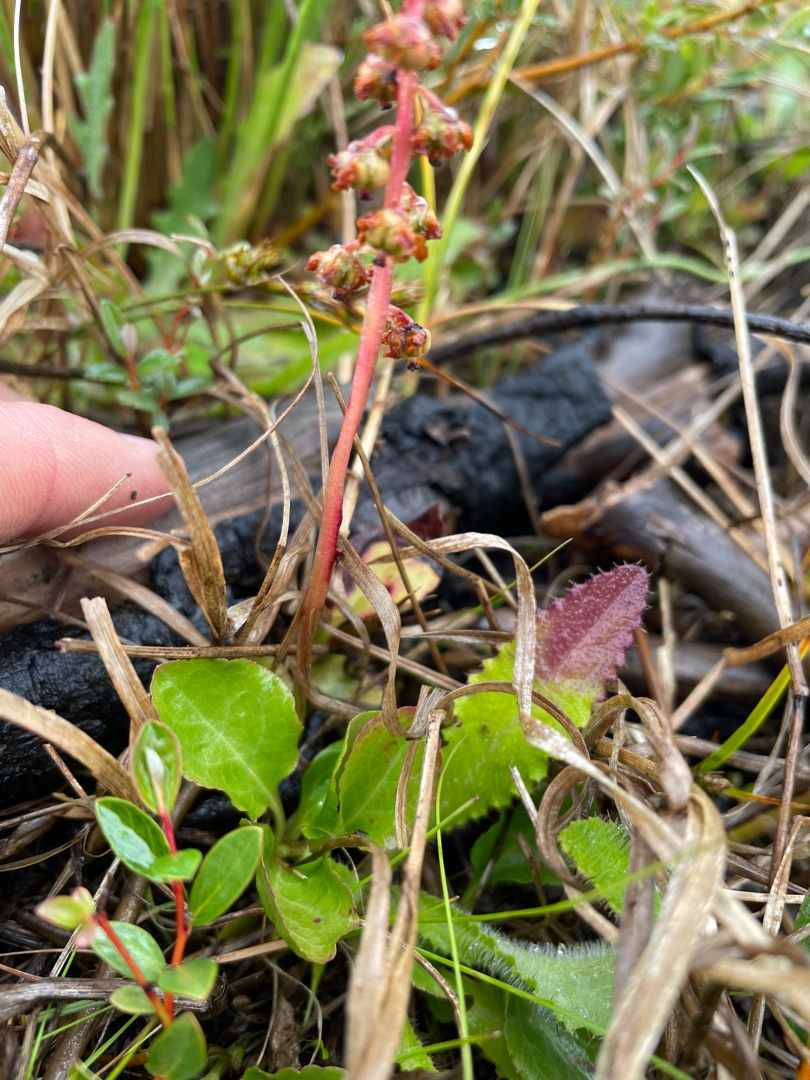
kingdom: Plantae
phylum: Tracheophyta
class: Magnoliopsida
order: Ericales
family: Ericaceae
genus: Pyrola
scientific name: Pyrola minor
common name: Liden vintergrøn
